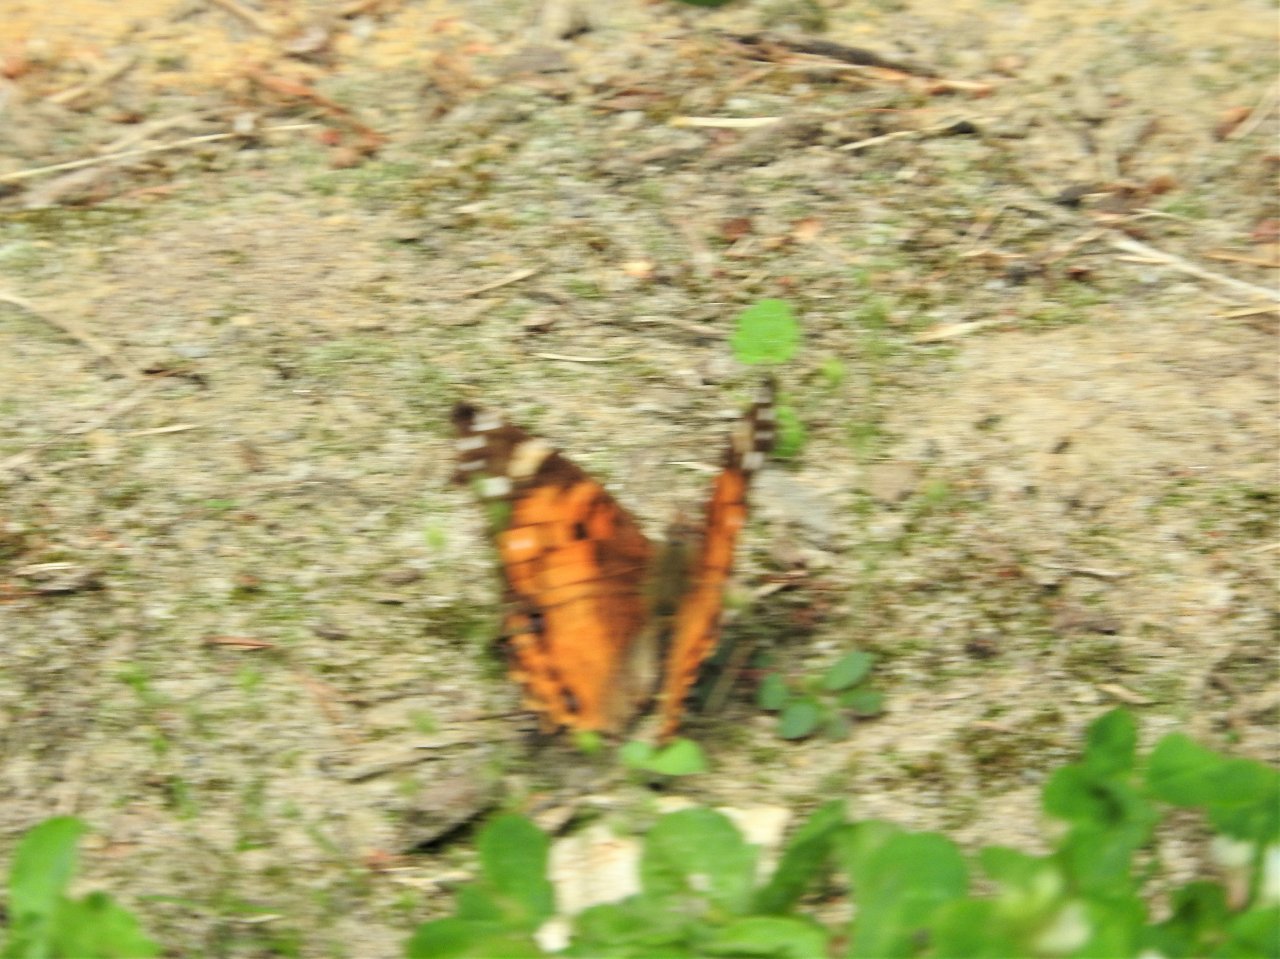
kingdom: Animalia
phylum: Arthropoda
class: Insecta
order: Lepidoptera
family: Nymphalidae
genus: Vanessa
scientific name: Vanessa virginiensis
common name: American Lady
